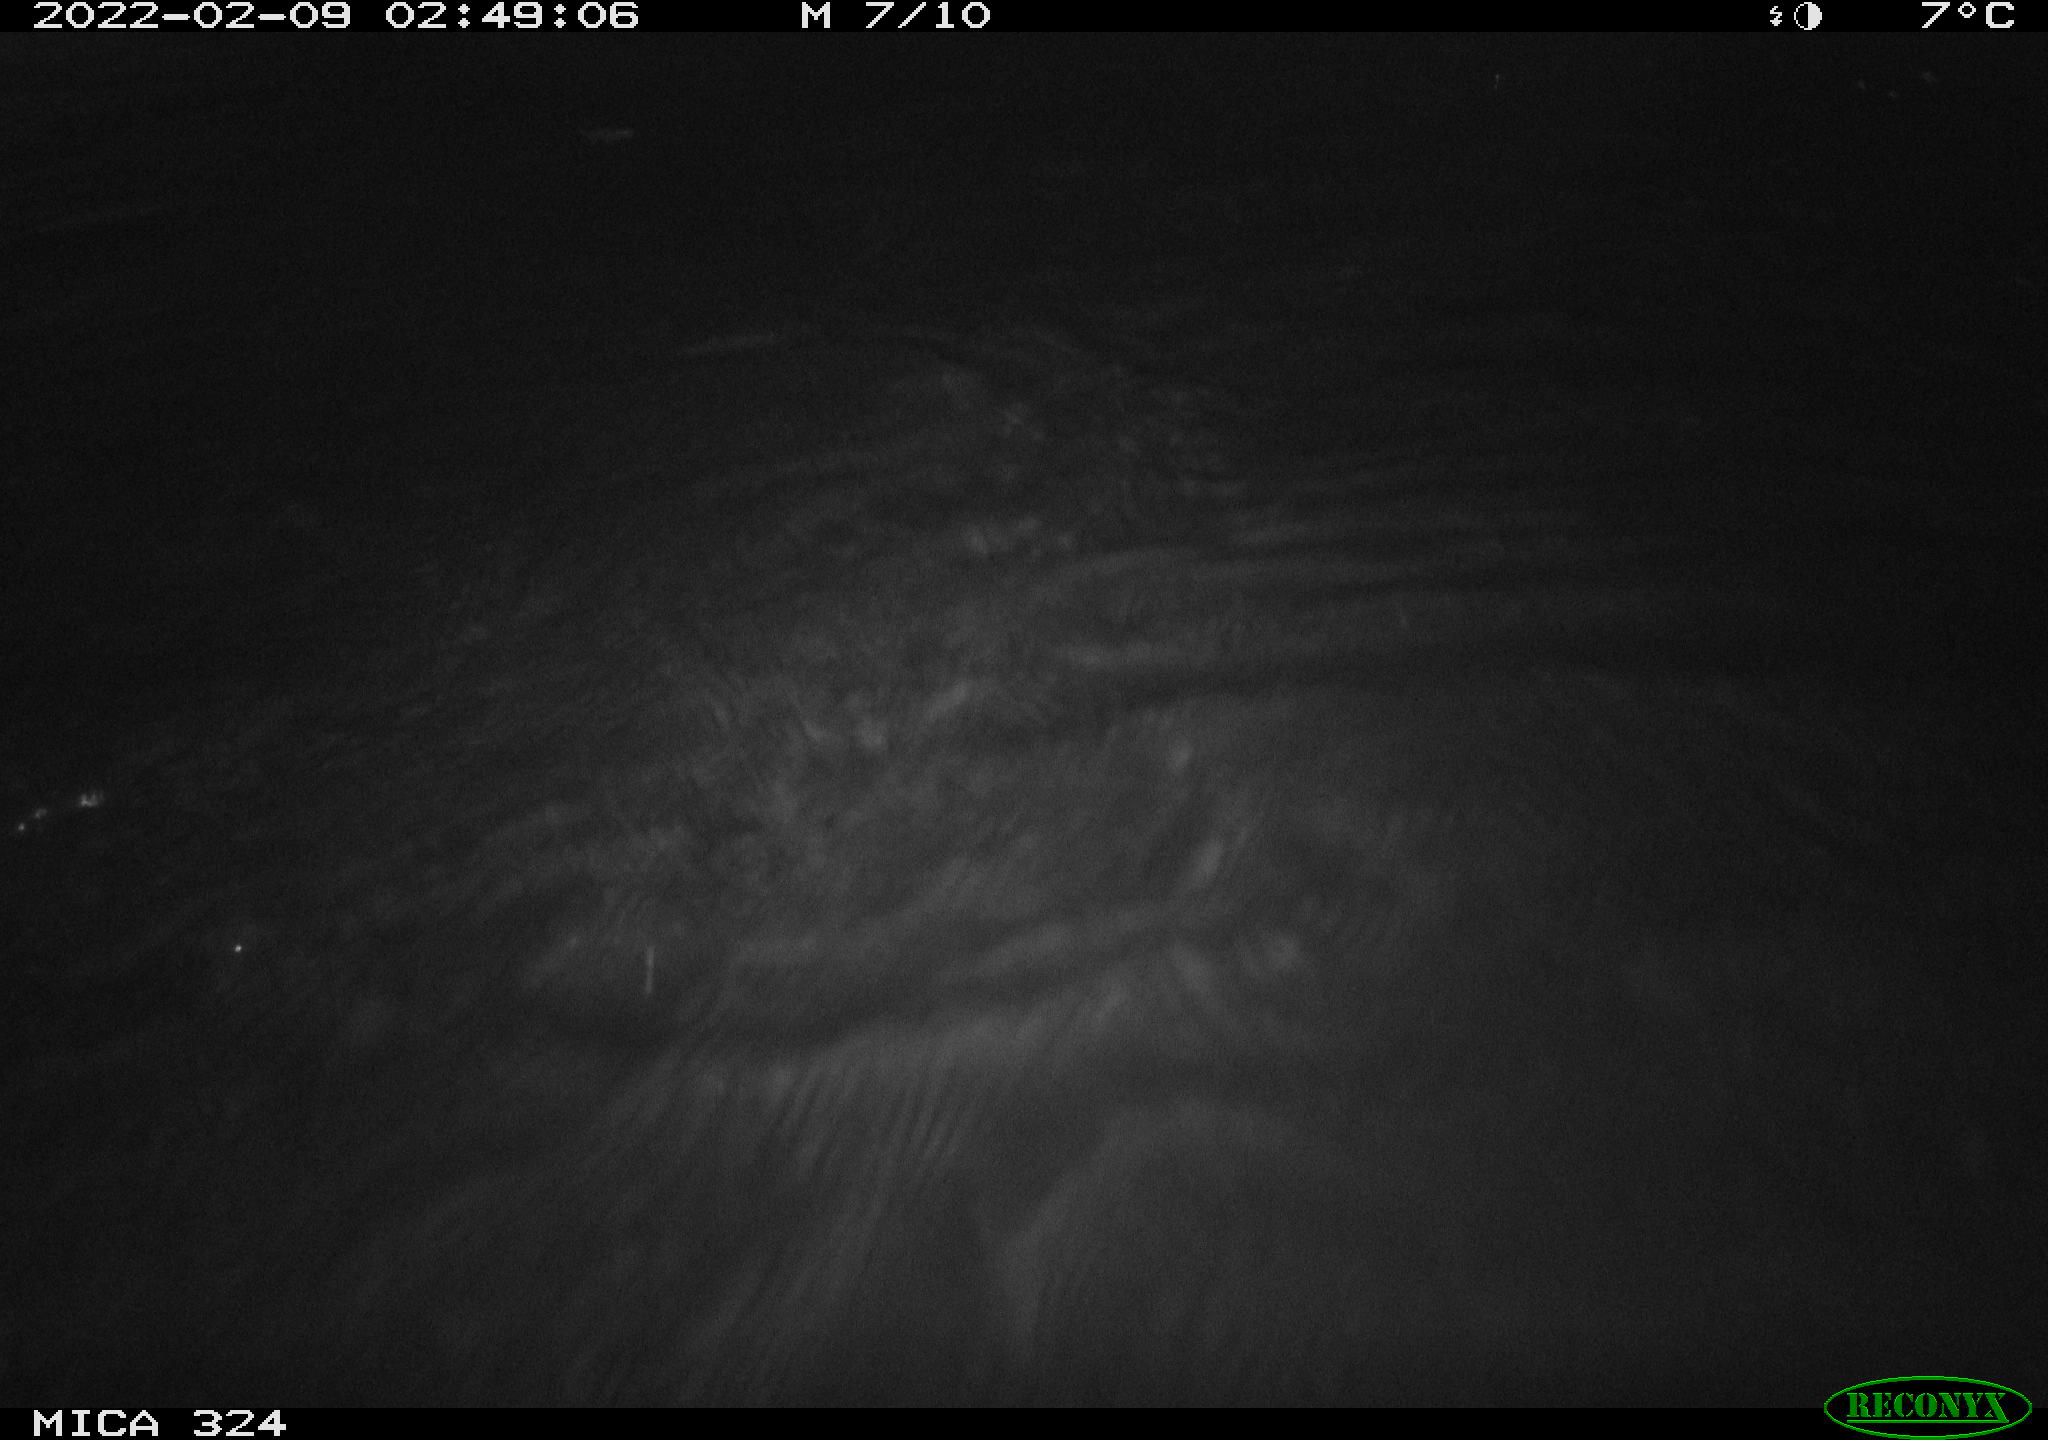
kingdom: Animalia
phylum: Chordata
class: Mammalia
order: Rodentia
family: Cricetidae
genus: Ondatra
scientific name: Ondatra zibethicus
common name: Muskrat
